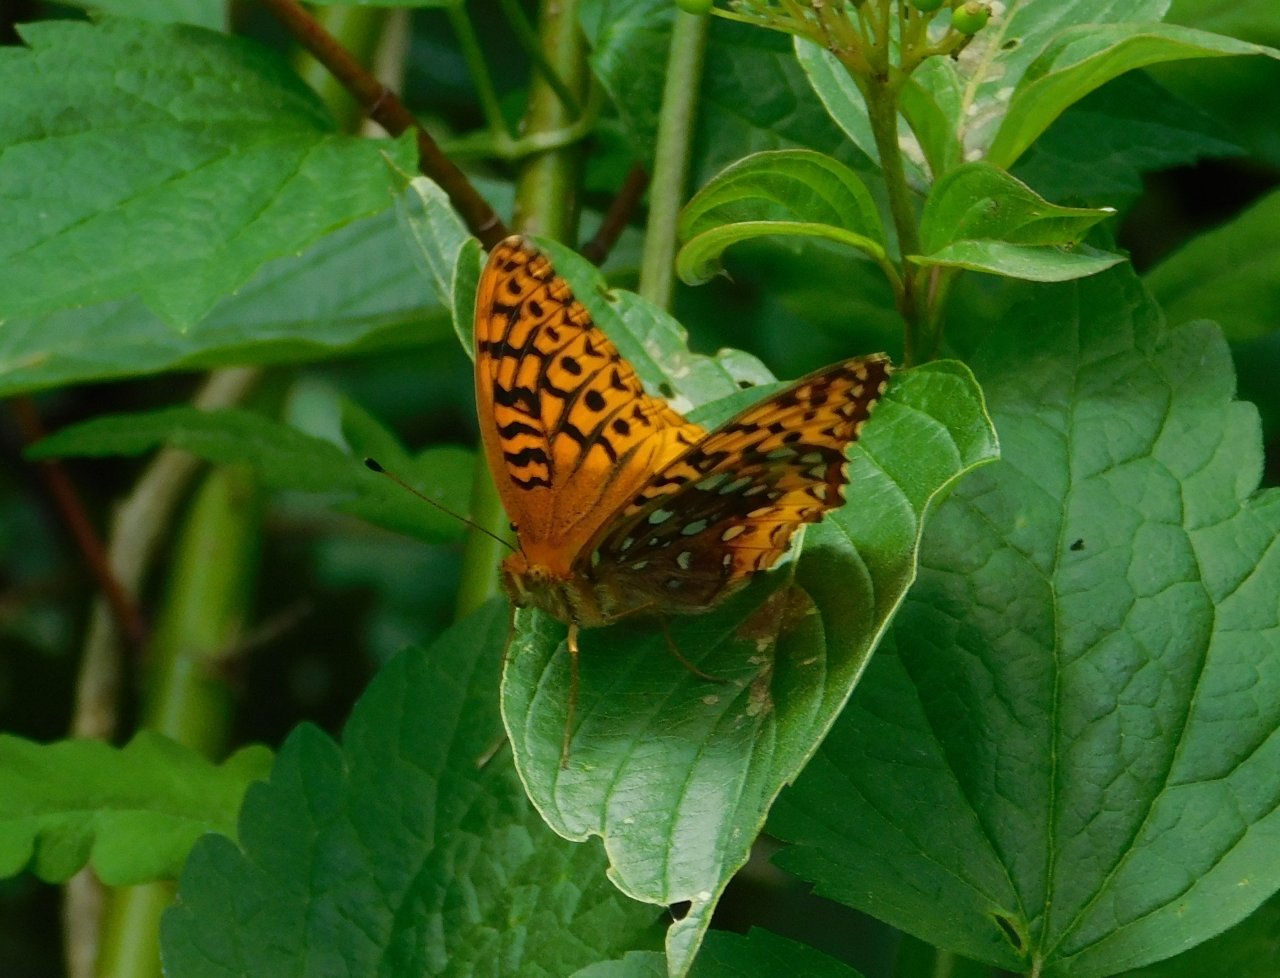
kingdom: Animalia
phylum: Arthropoda
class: Insecta
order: Lepidoptera
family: Nymphalidae
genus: Speyeria
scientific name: Speyeria cybele
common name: Great Spangled Fritillary
